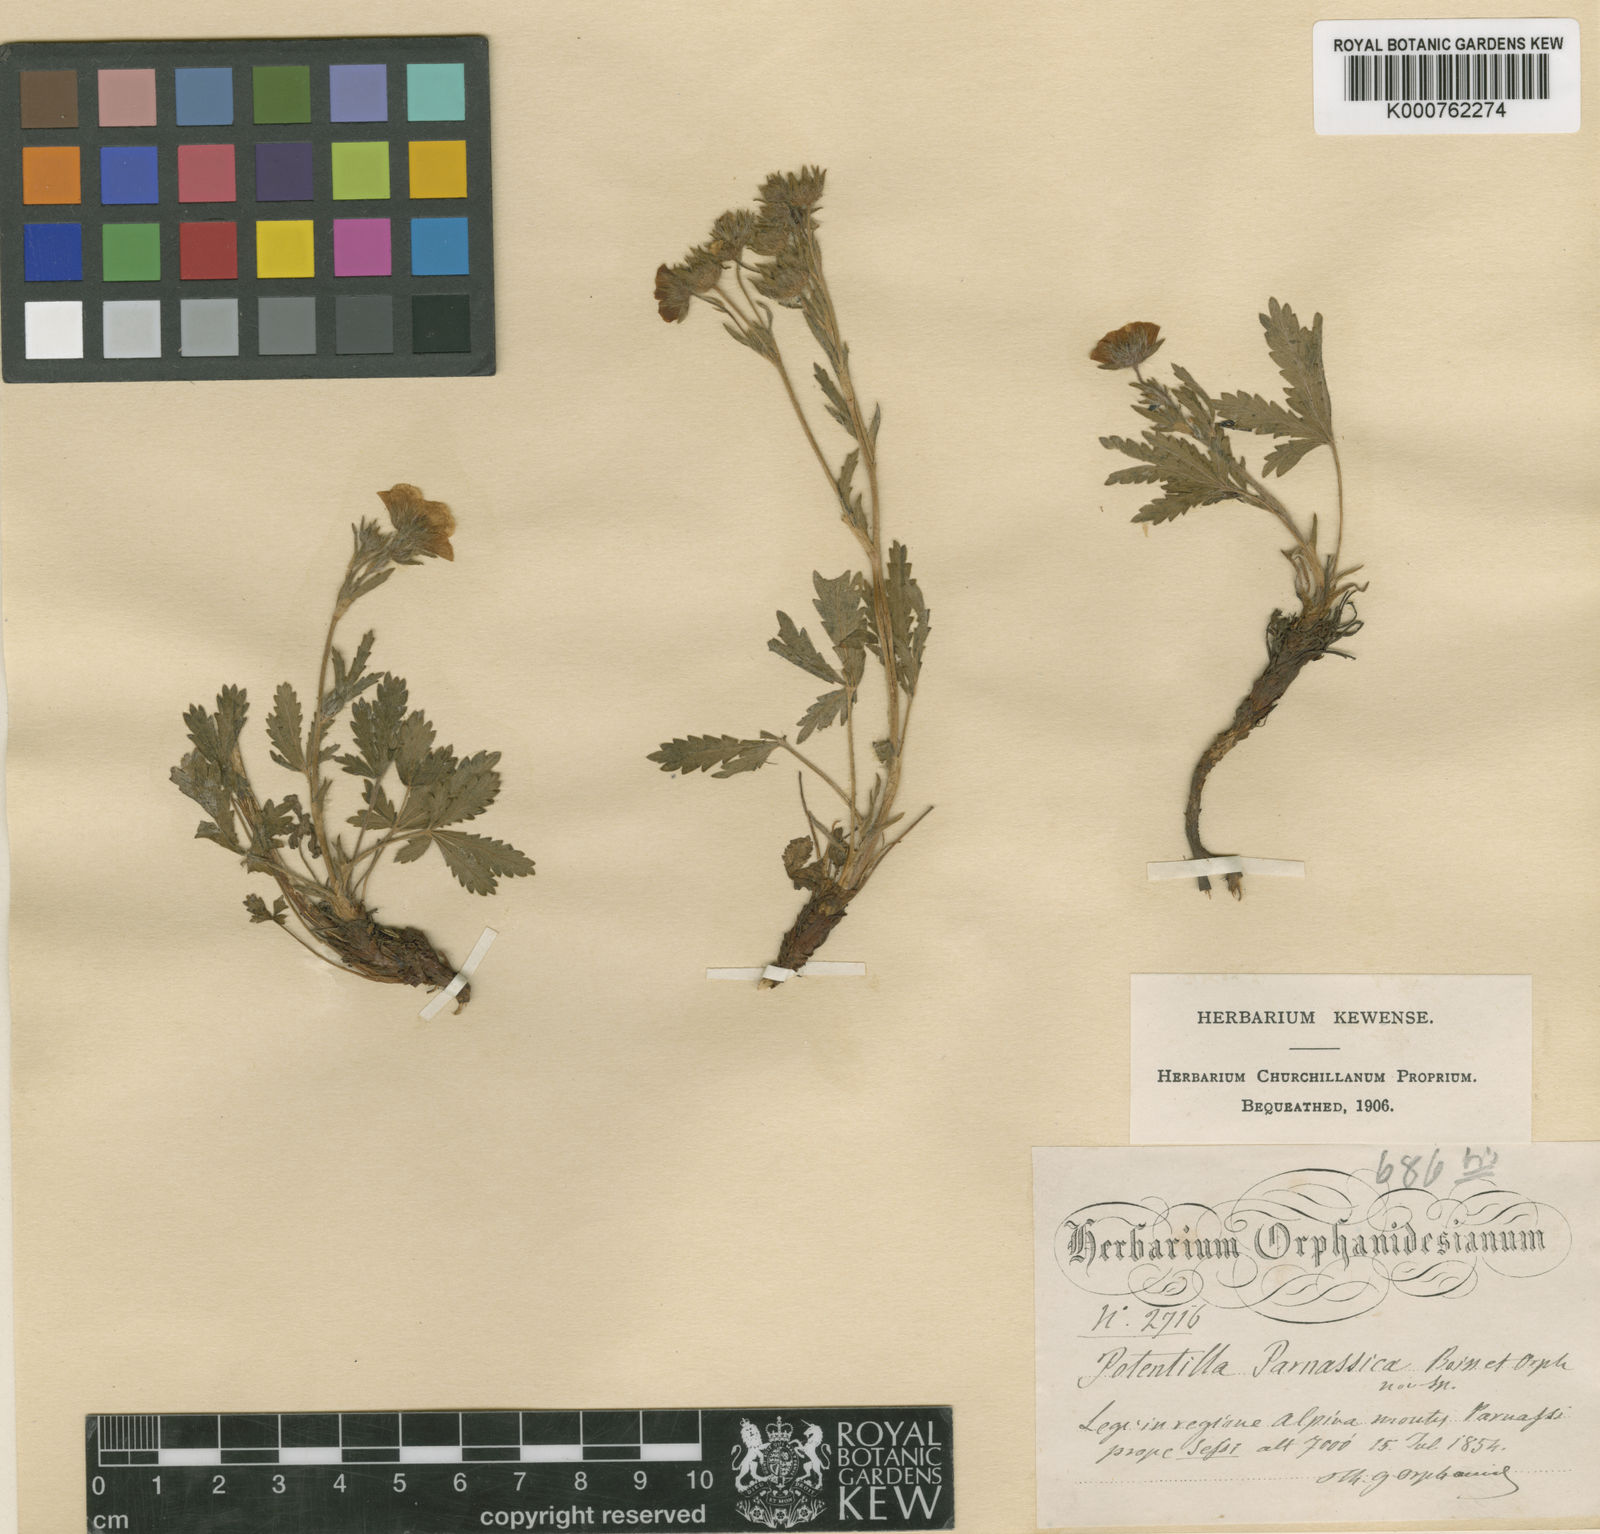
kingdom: Plantae
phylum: Tracheophyta
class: Magnoliopsida
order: Rosales
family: Rosaceae
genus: Potentilla
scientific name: Potentilla hirta
